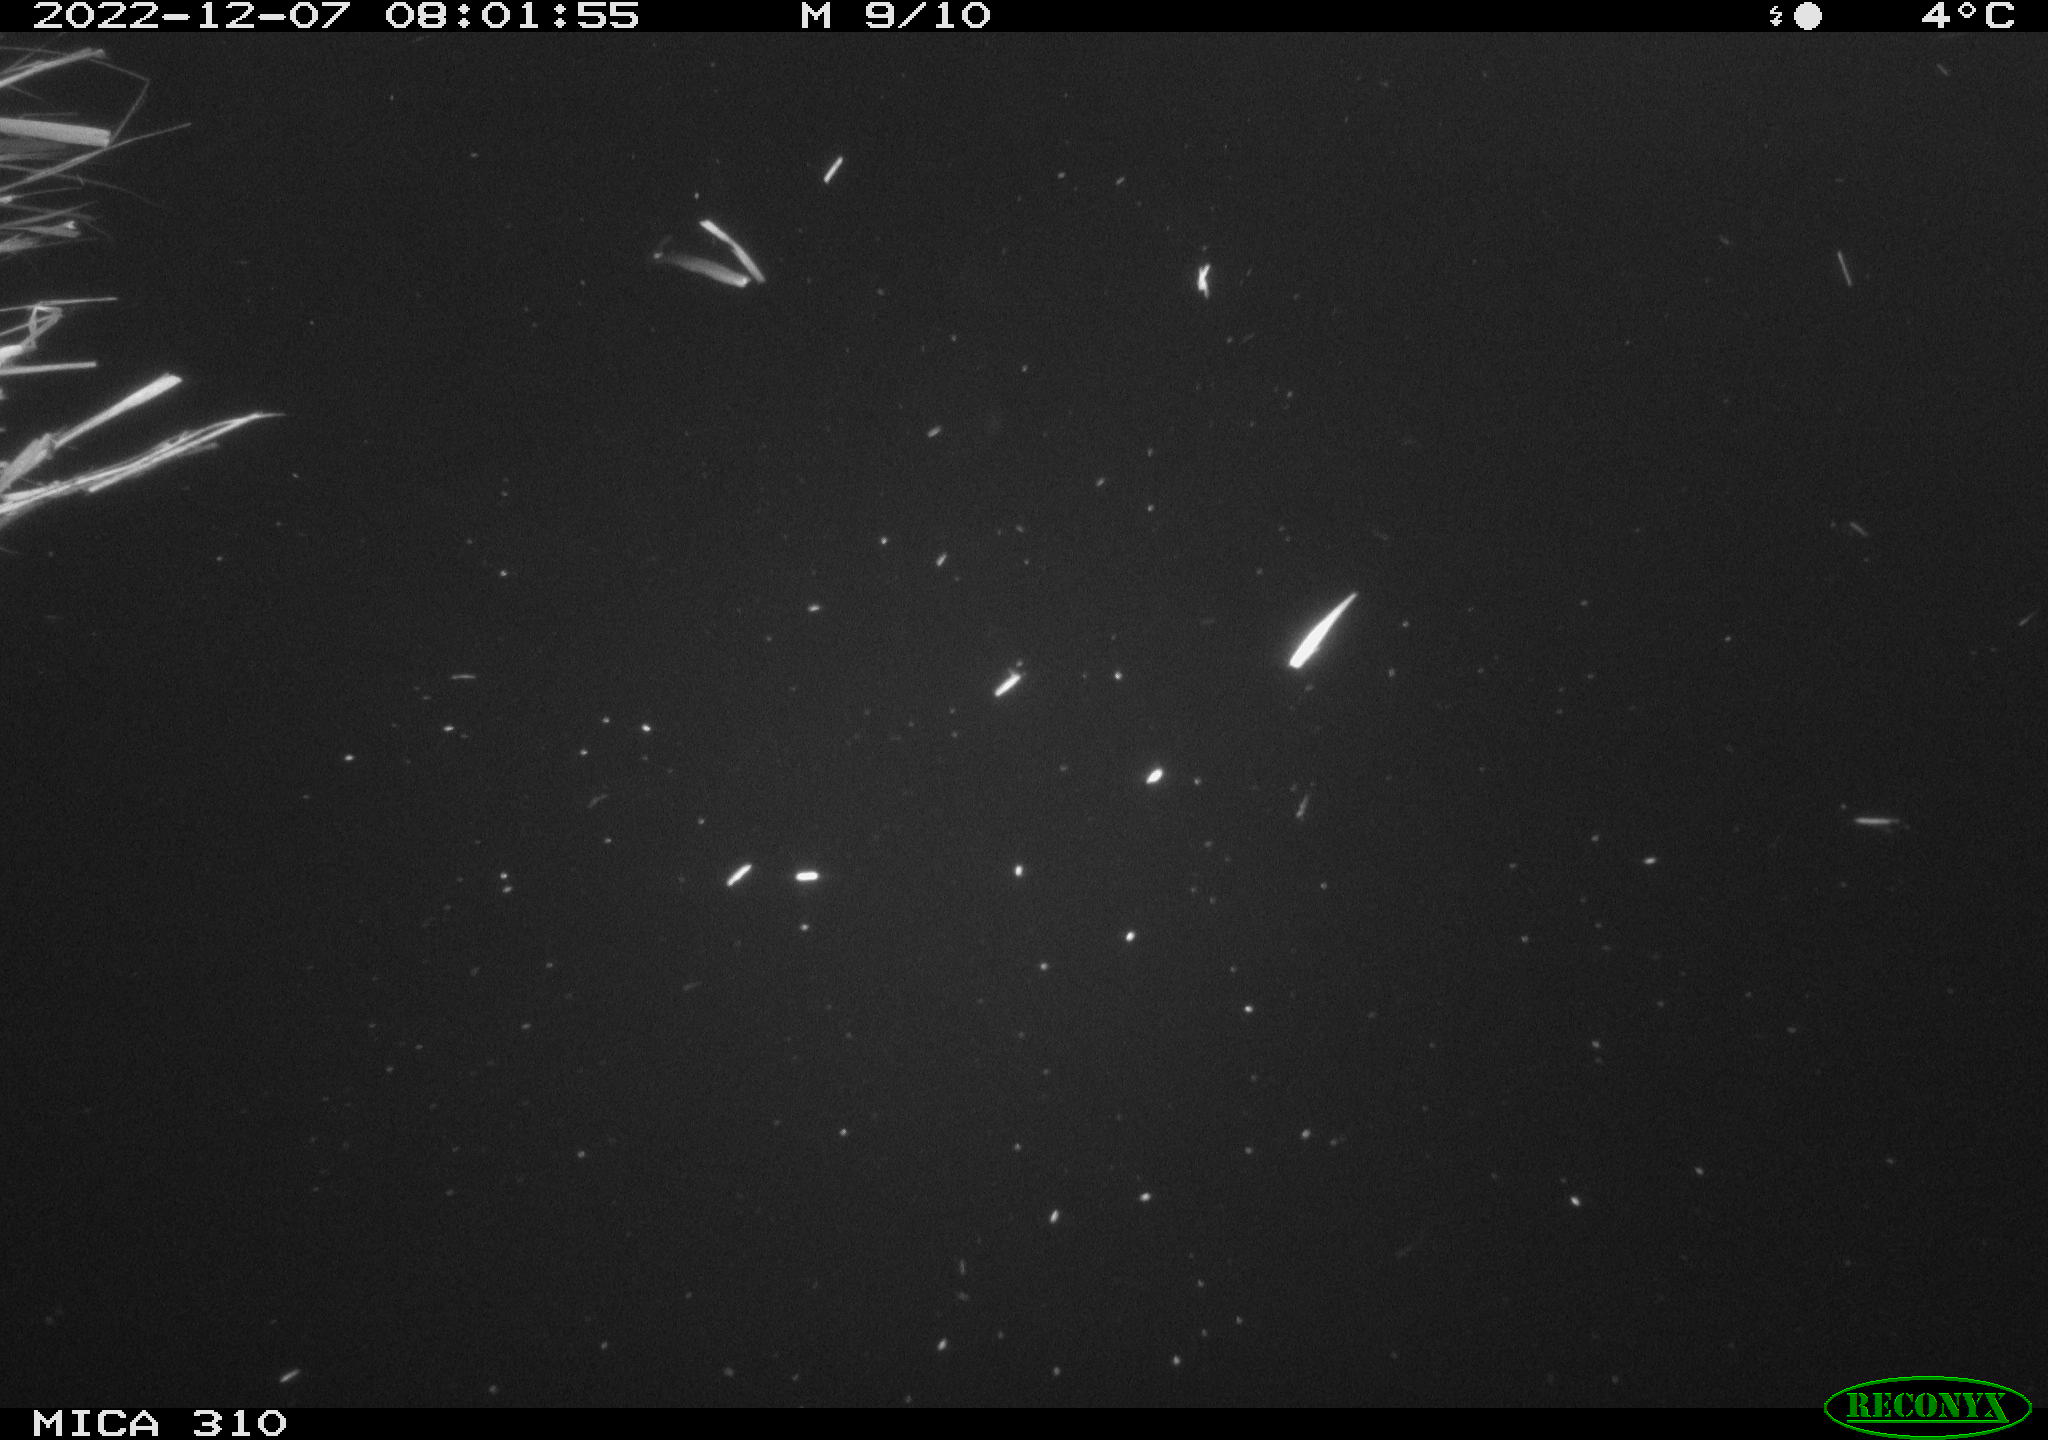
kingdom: Animalia
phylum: Chordata
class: Mammalia
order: Rodentia
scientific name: Rodentia
